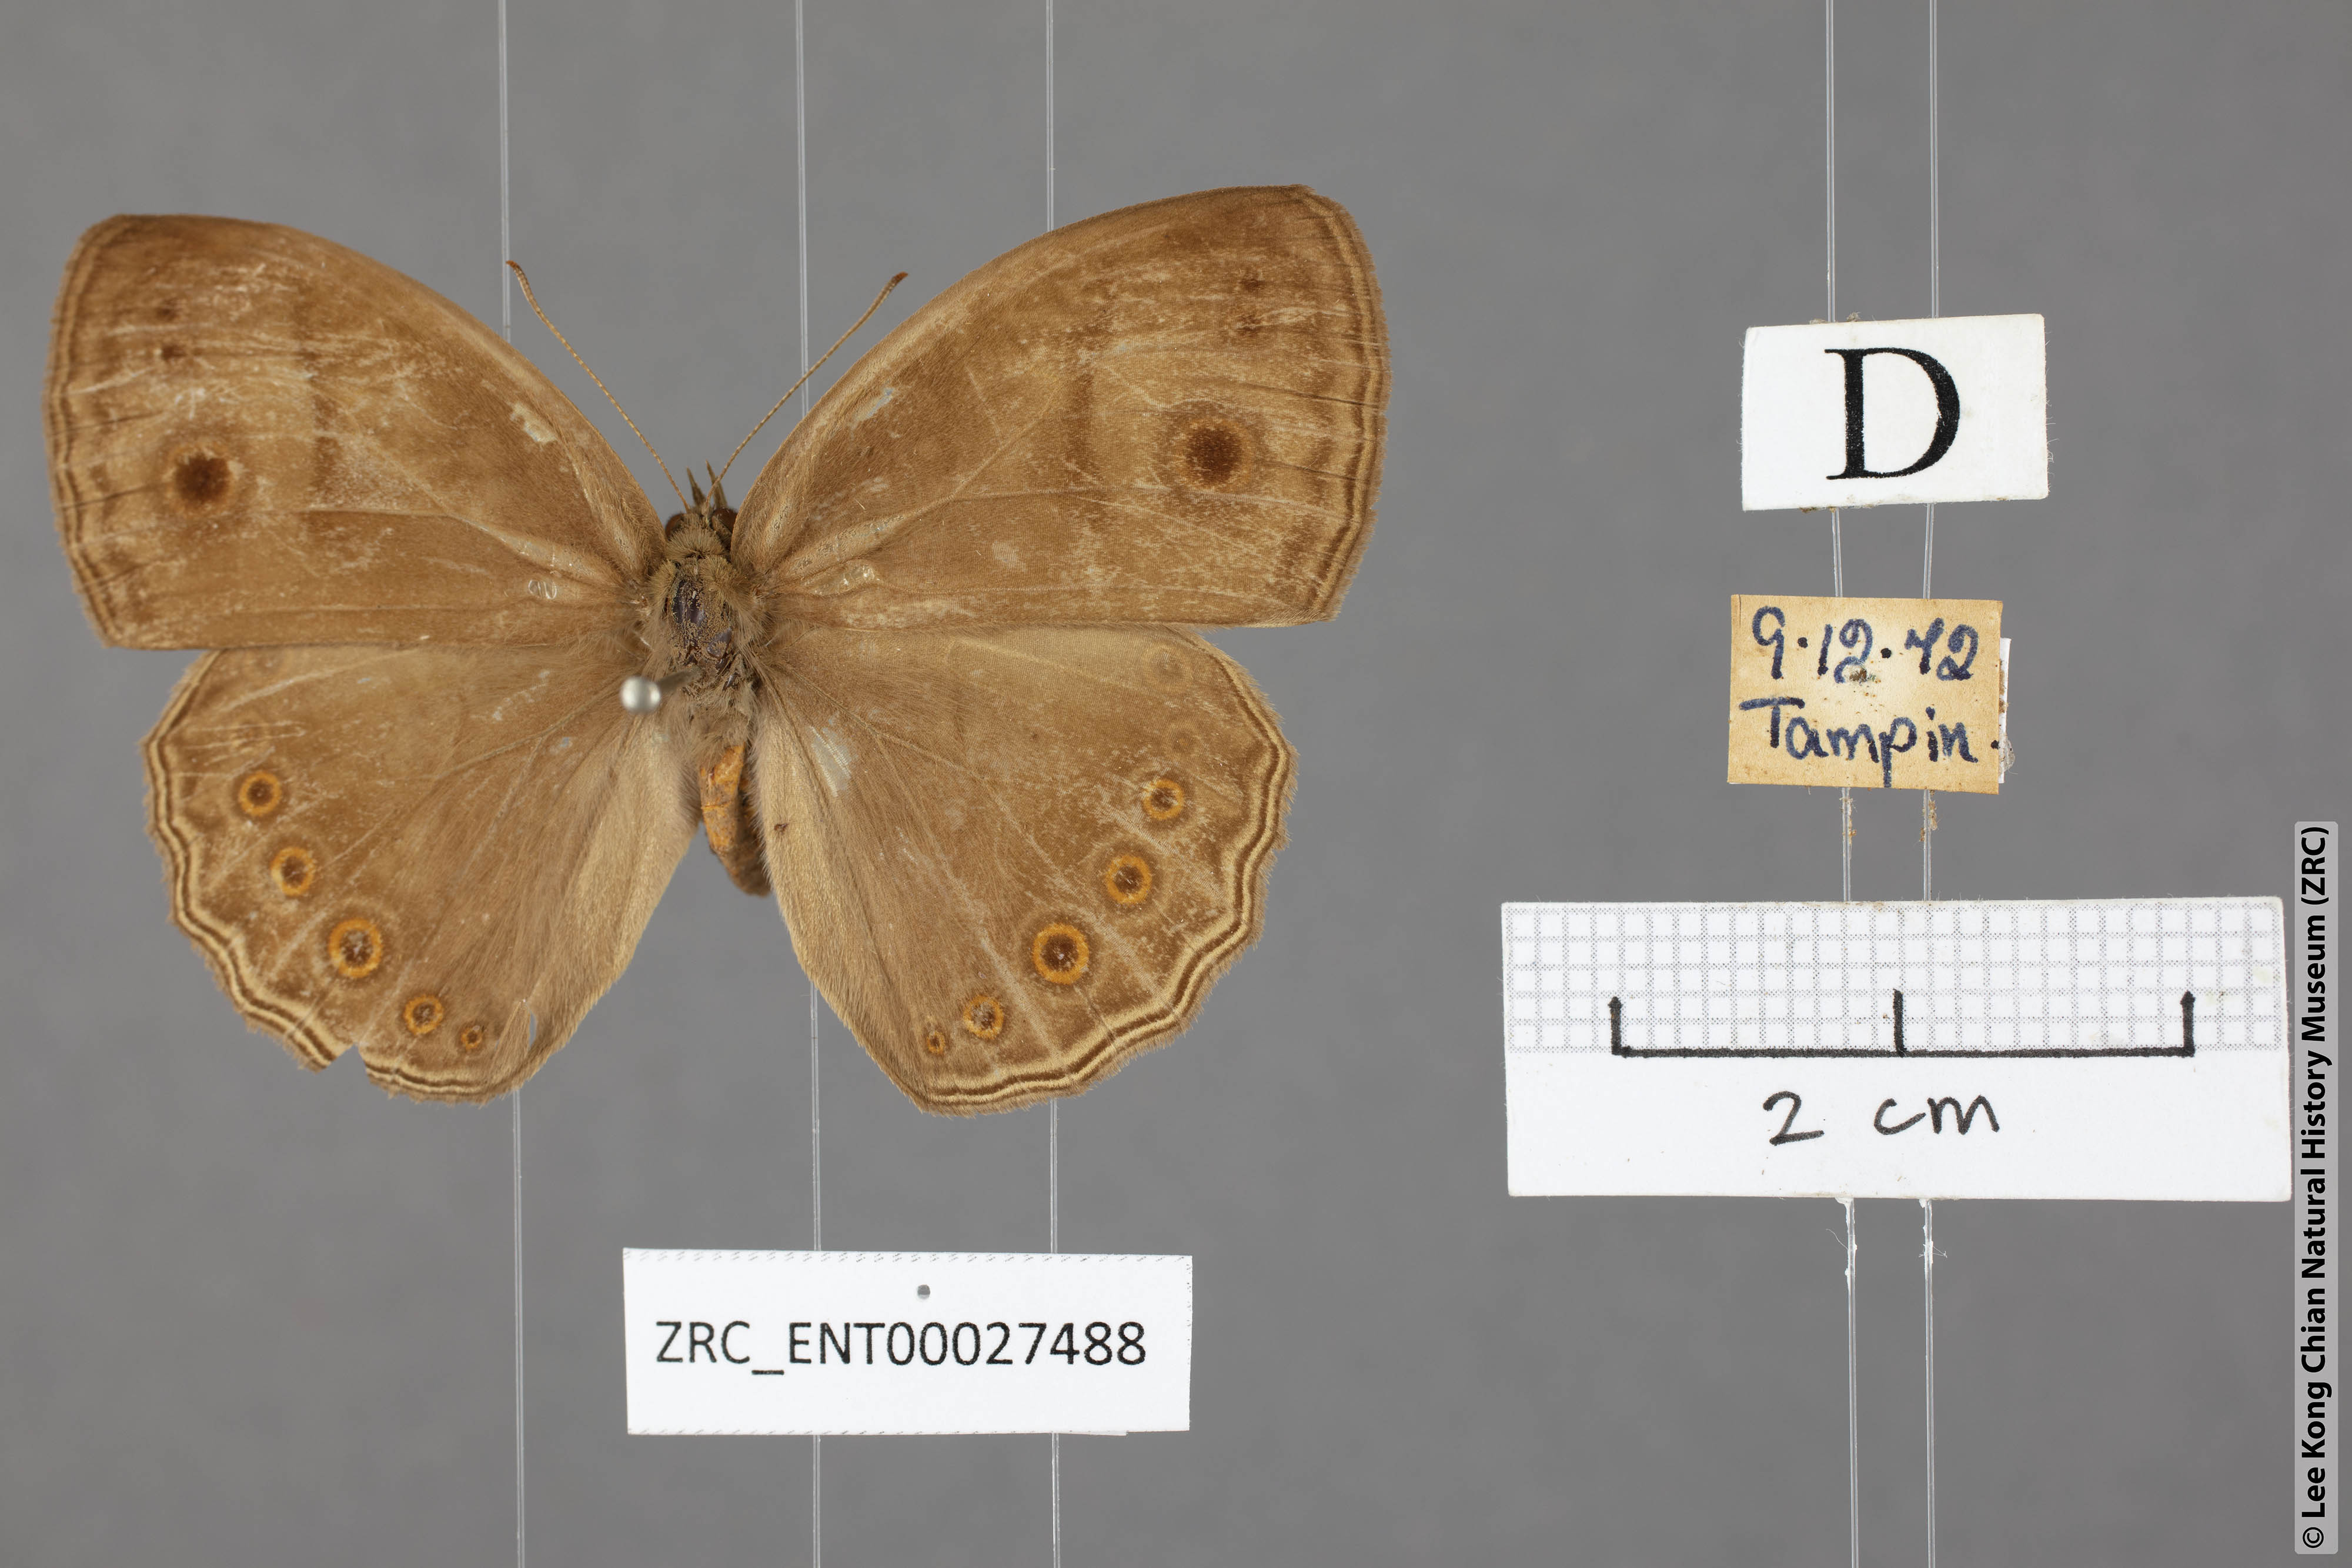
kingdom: Animalia
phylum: Arthropoda
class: Insecta
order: Lepidoptera
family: Nymphalidae
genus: Mycalesis
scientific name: Mycalesis fuscum
